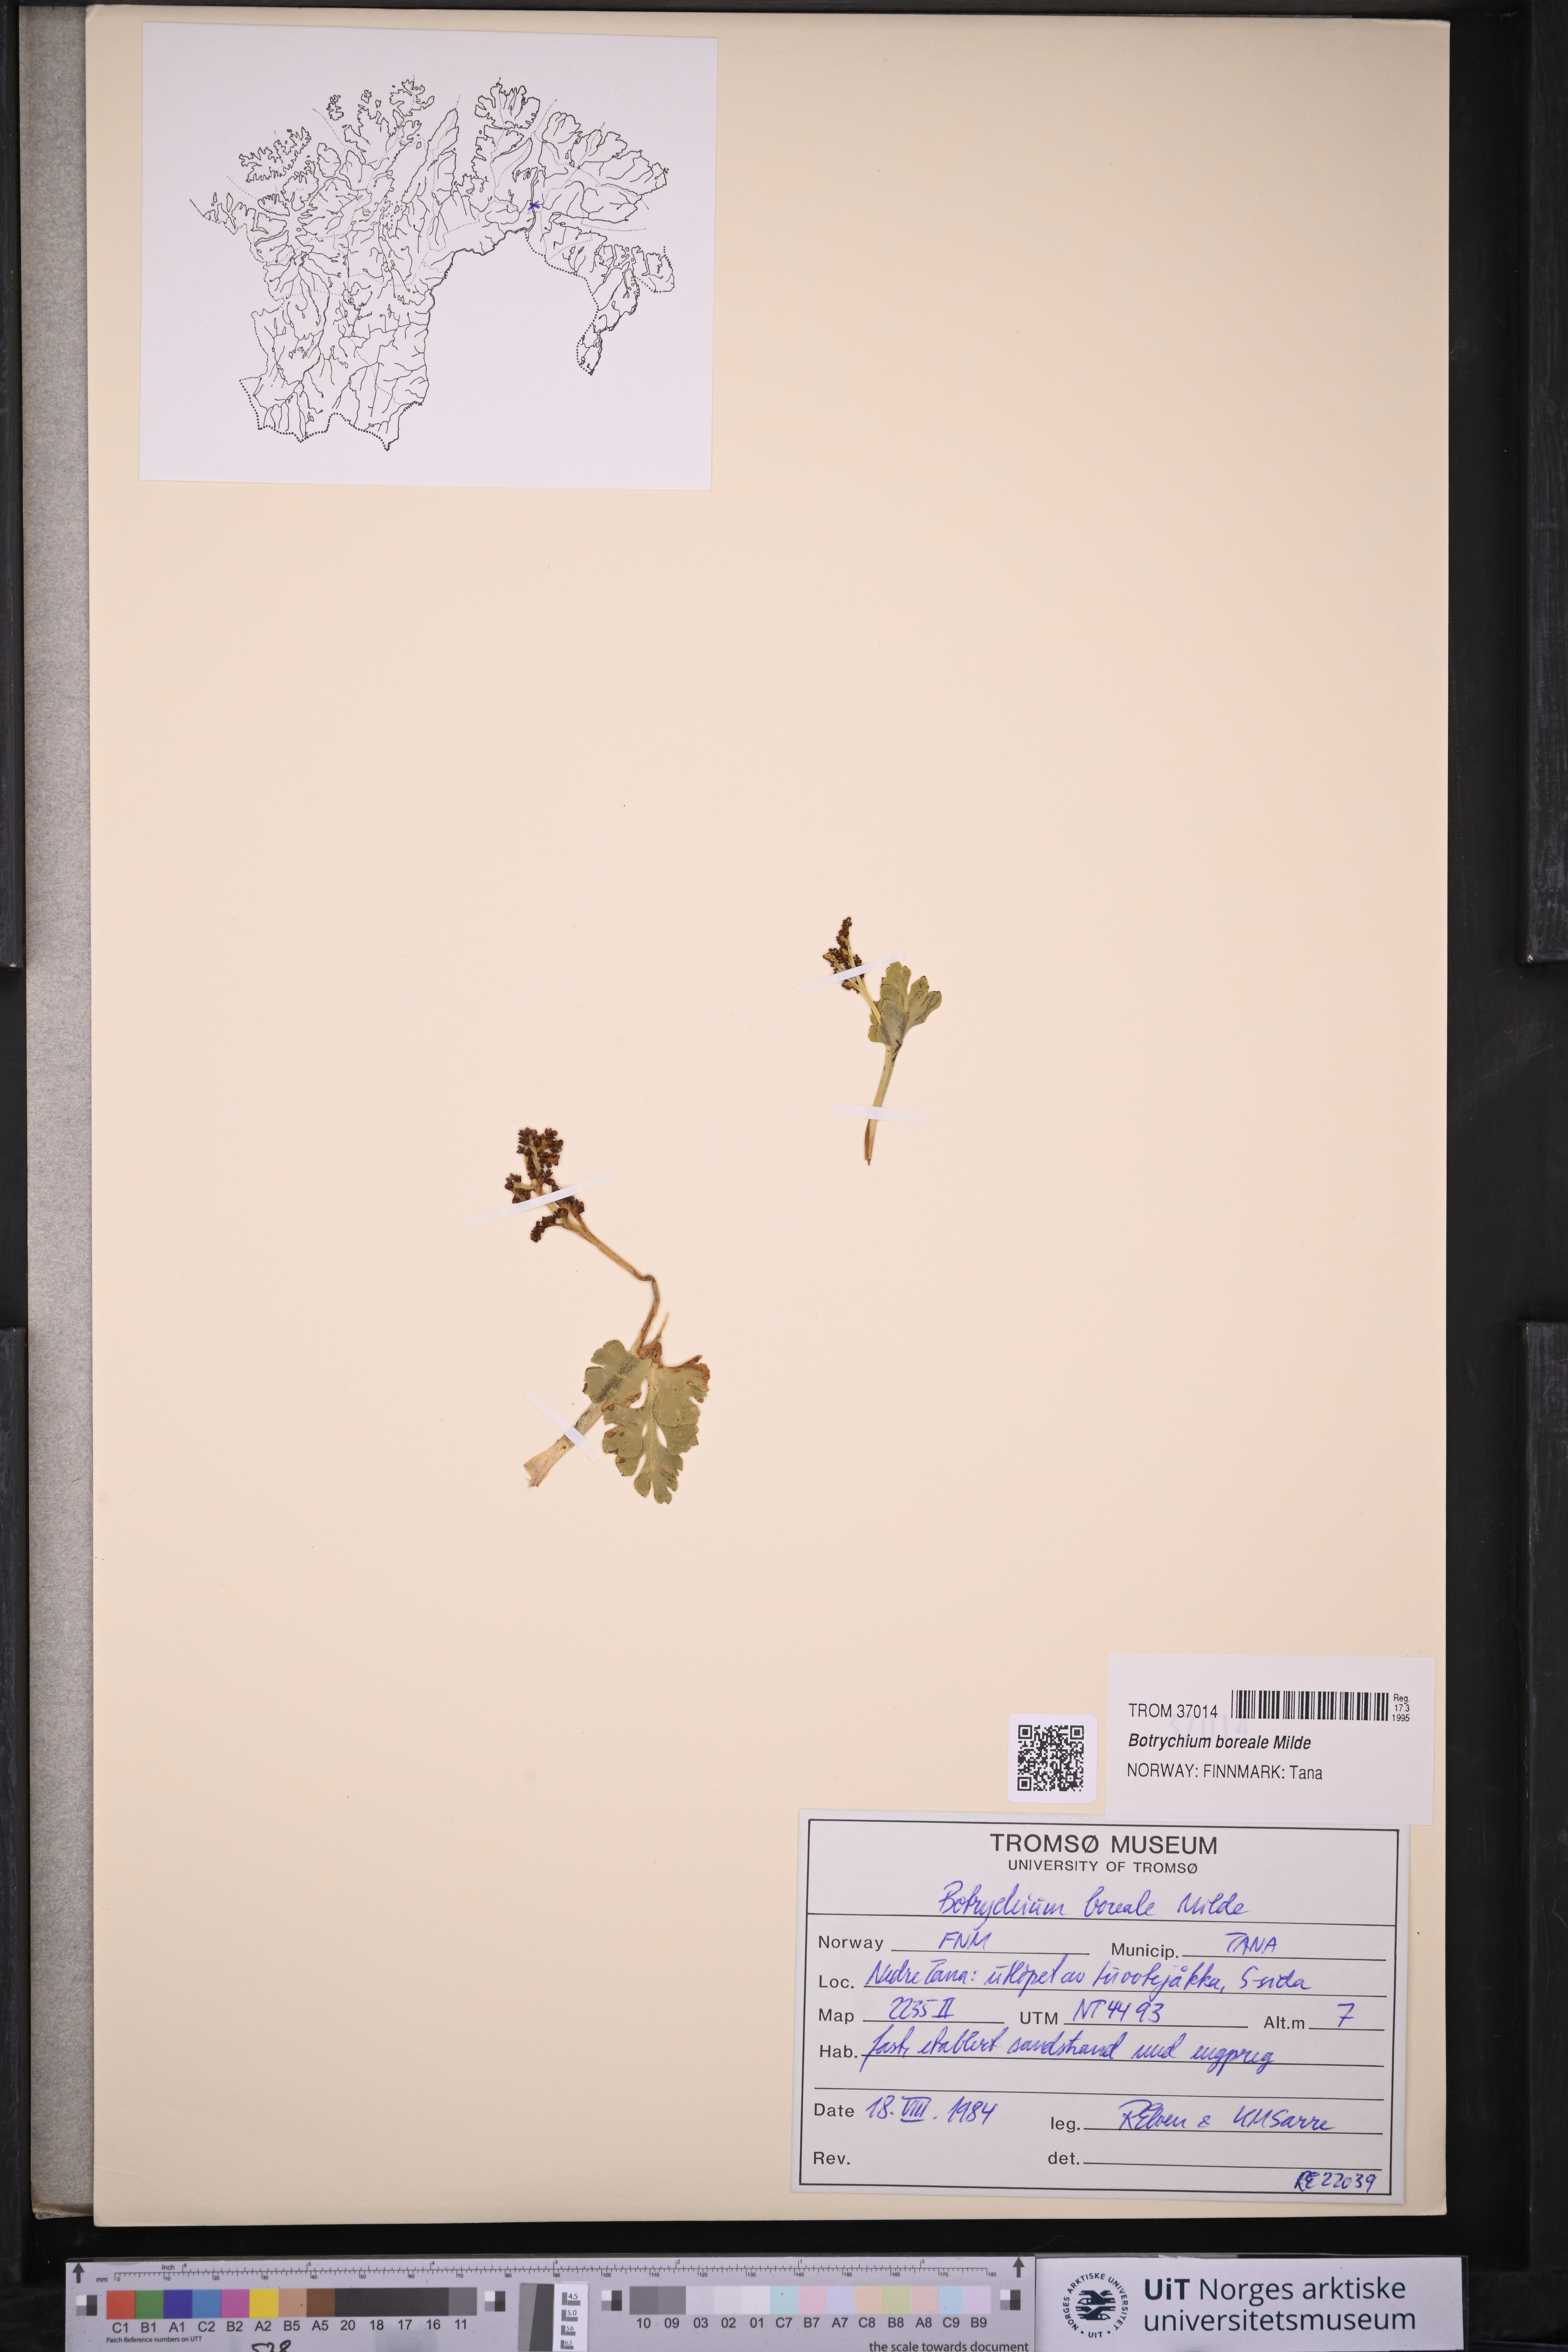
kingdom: Plantae
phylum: Tracheophyta
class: Polypodiopsida
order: Ophioglossales
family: Ophioglossaceae
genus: Botrychium
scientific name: Botrychium boreale
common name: Boreal moonwort
